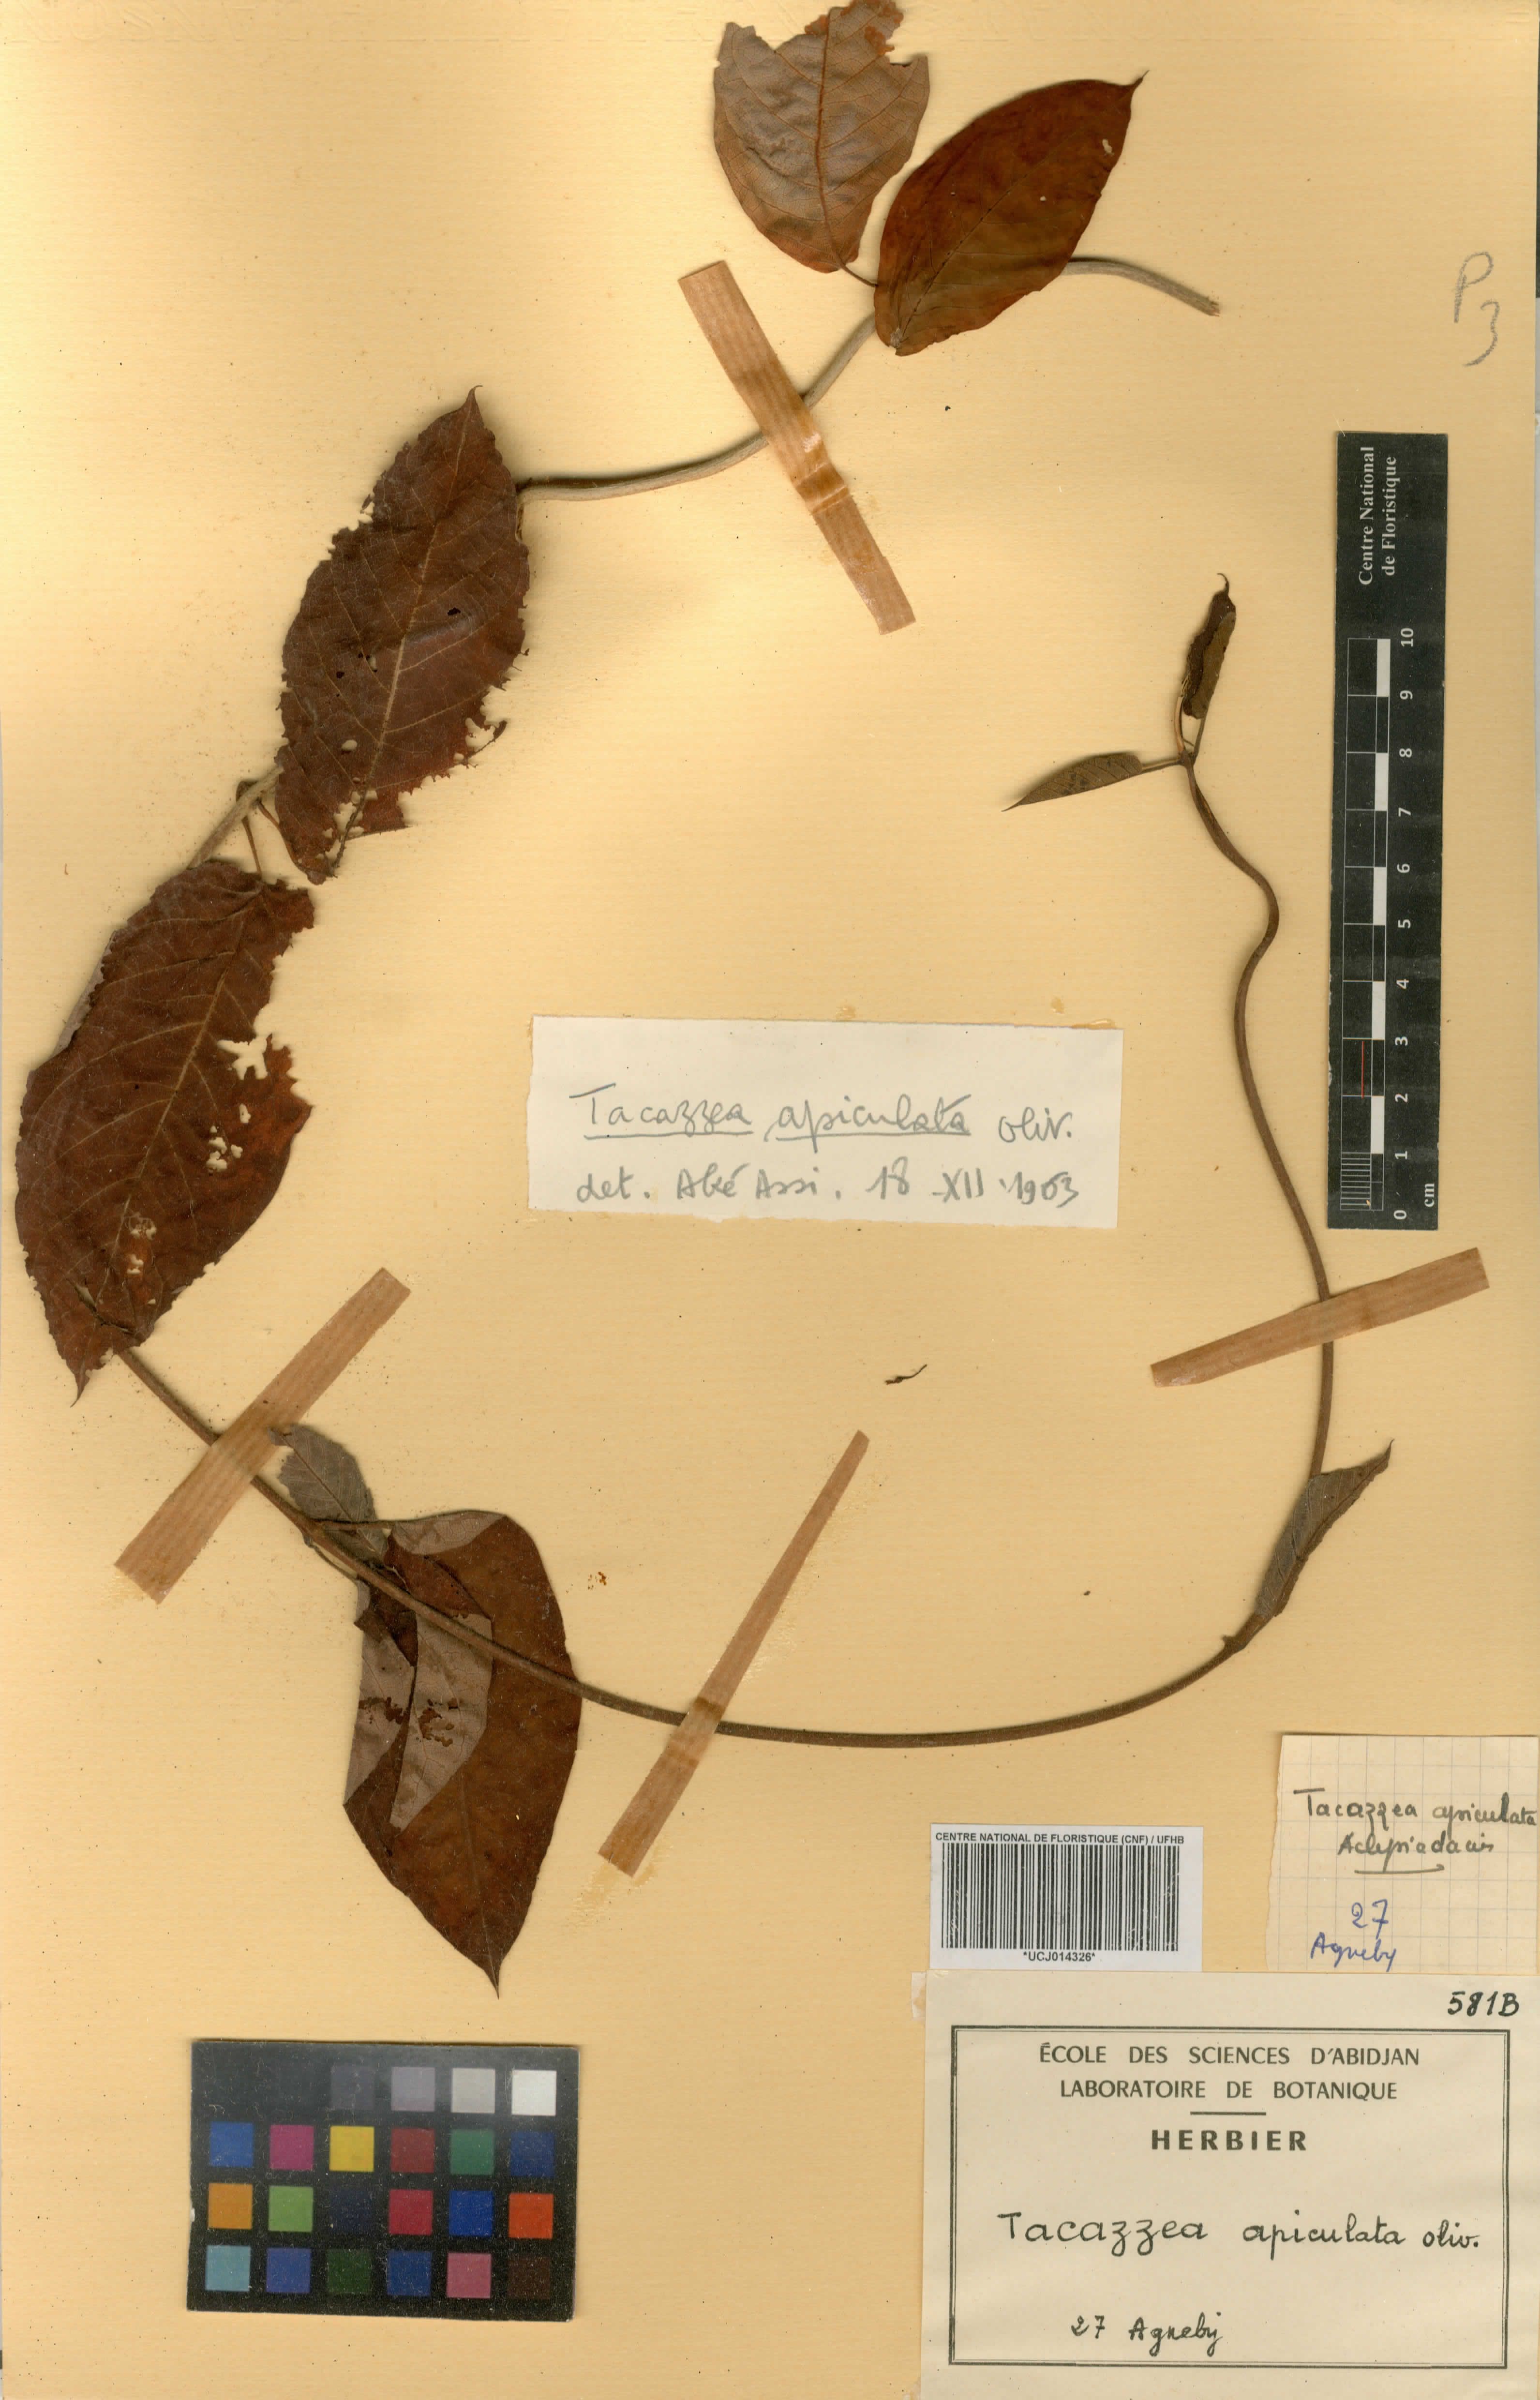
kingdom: Plantae
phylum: Tracheophyta
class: Magnoliopsida
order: Gentianales
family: Apocynaceae
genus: Tacazzea
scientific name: Tacazzea apiculata
